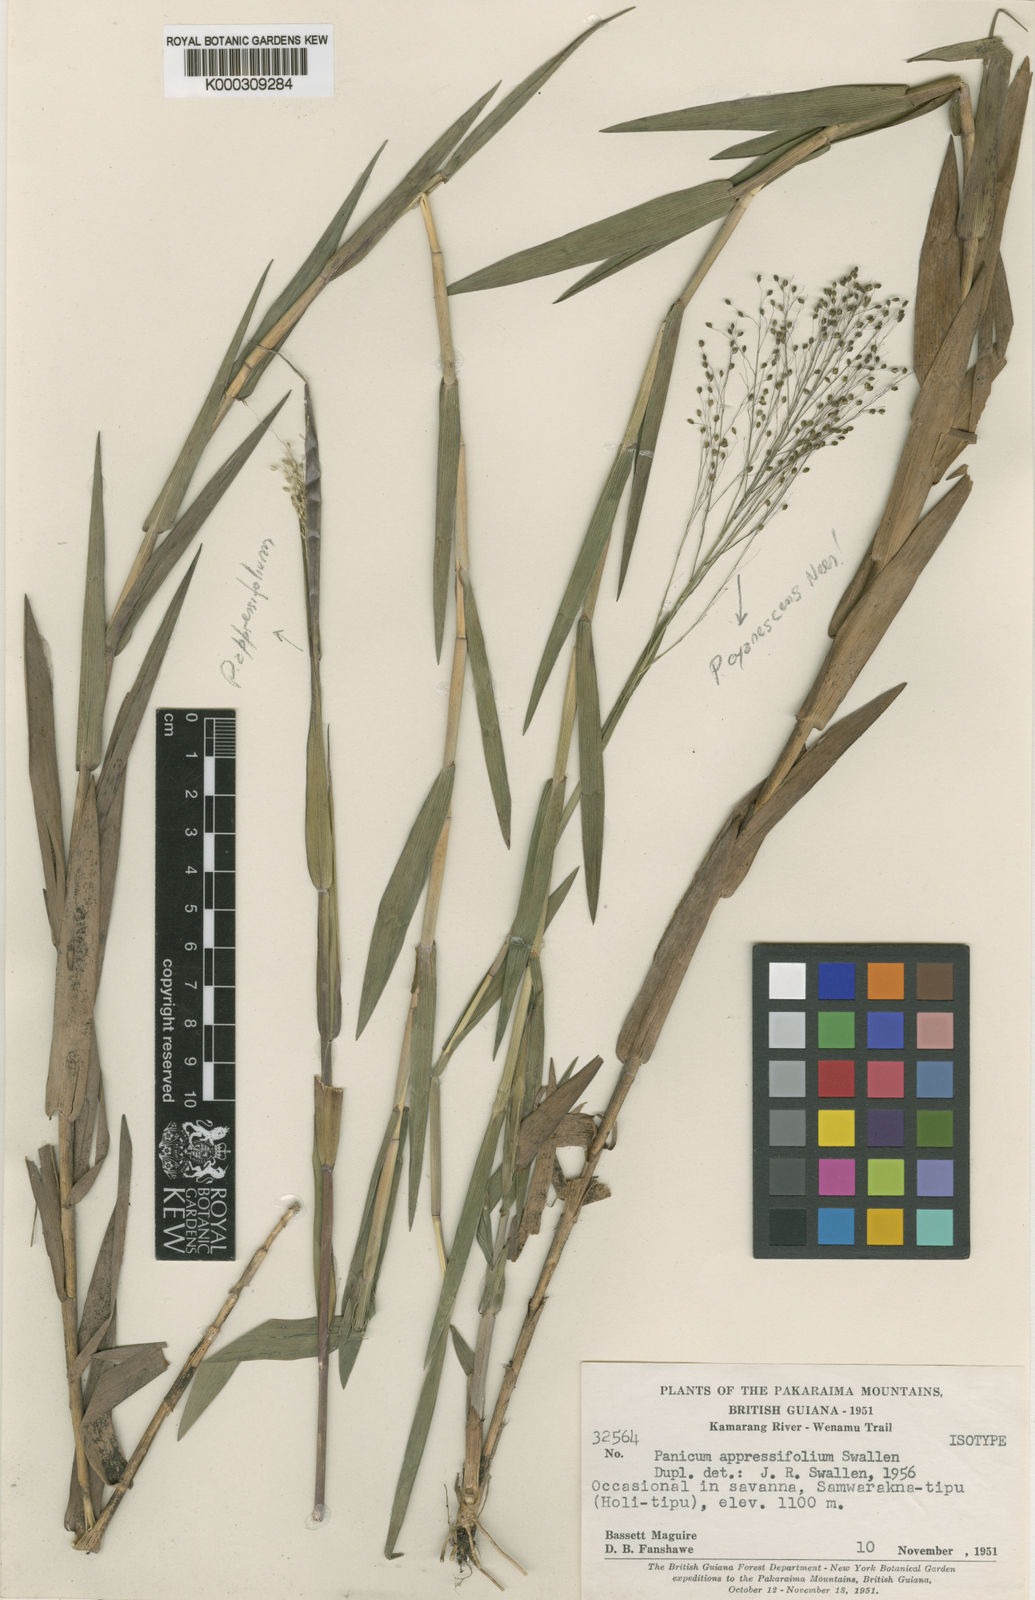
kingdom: Plantae
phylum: Tracheophyta
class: Liliopsida
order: Poales
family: Poaceae
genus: Dichanthelium
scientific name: Dichanthelium aequivaginatum
